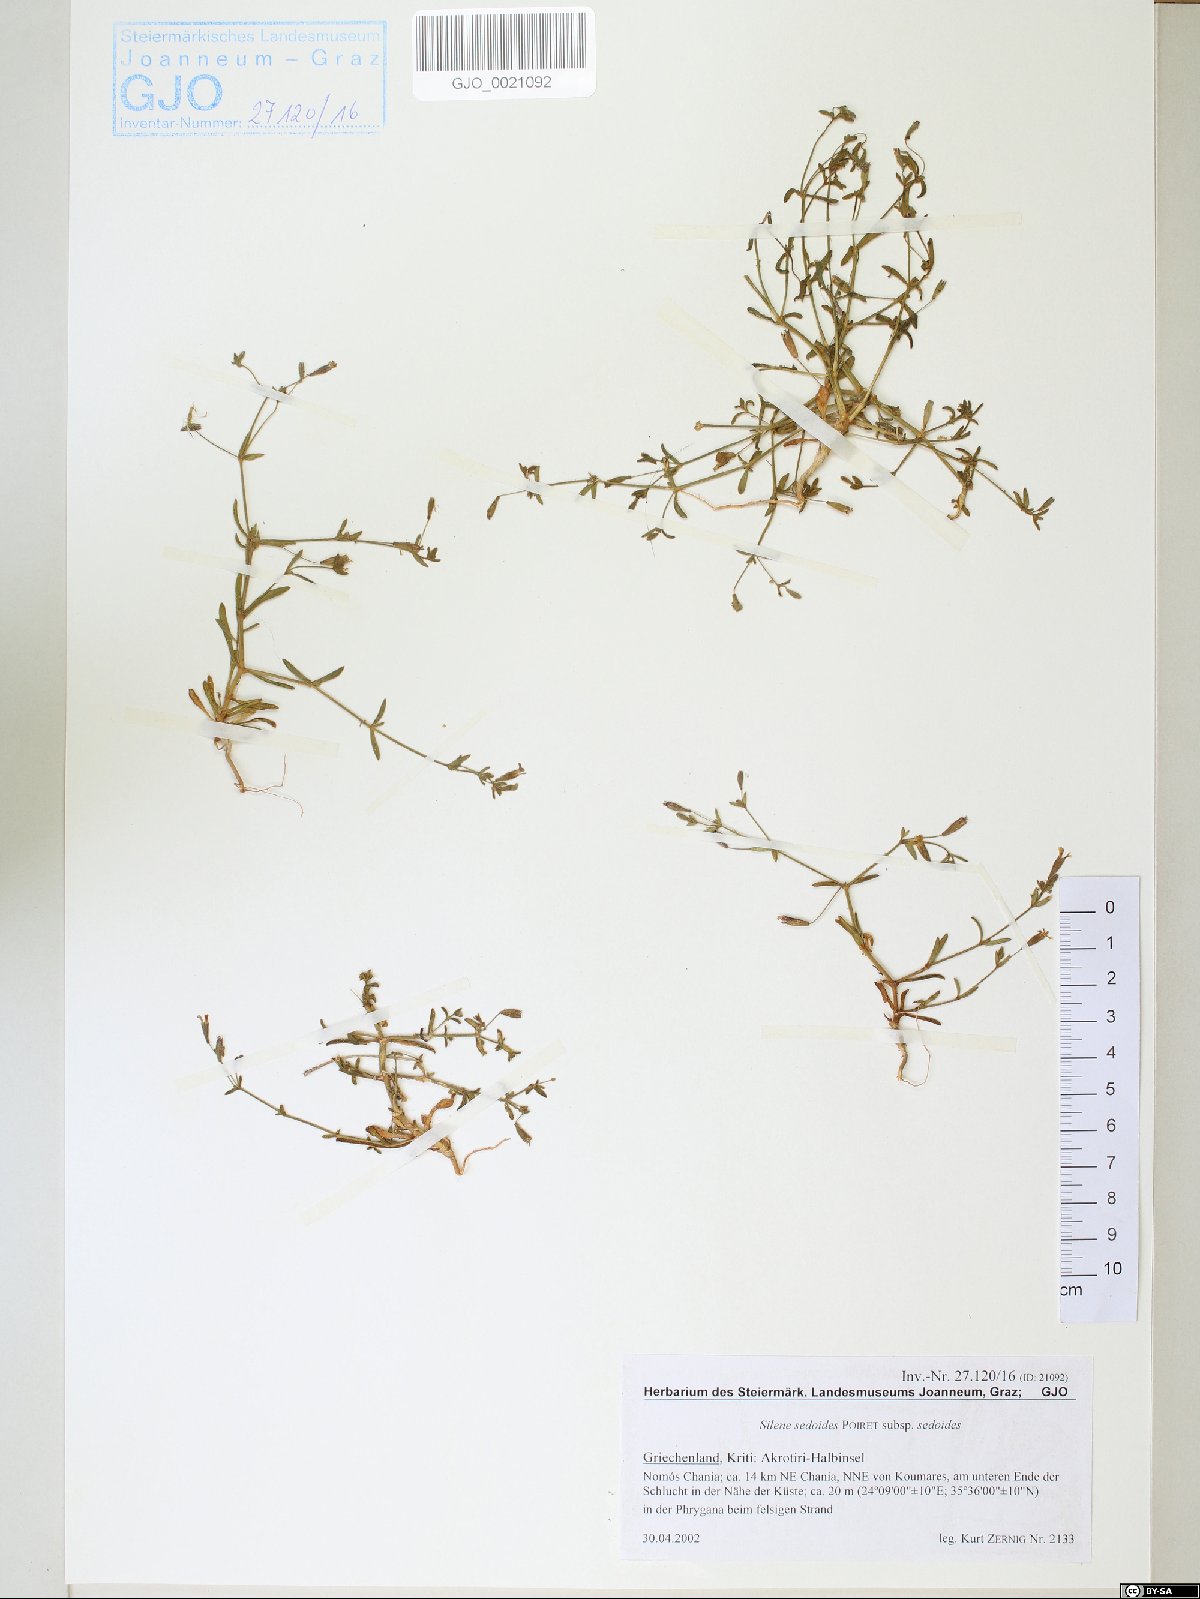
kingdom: Plantae
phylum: Tracheophyta
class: Magnoliopsida
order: Caryophyllales
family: Caryophyllaceae
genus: Silene
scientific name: Silene sedoides
